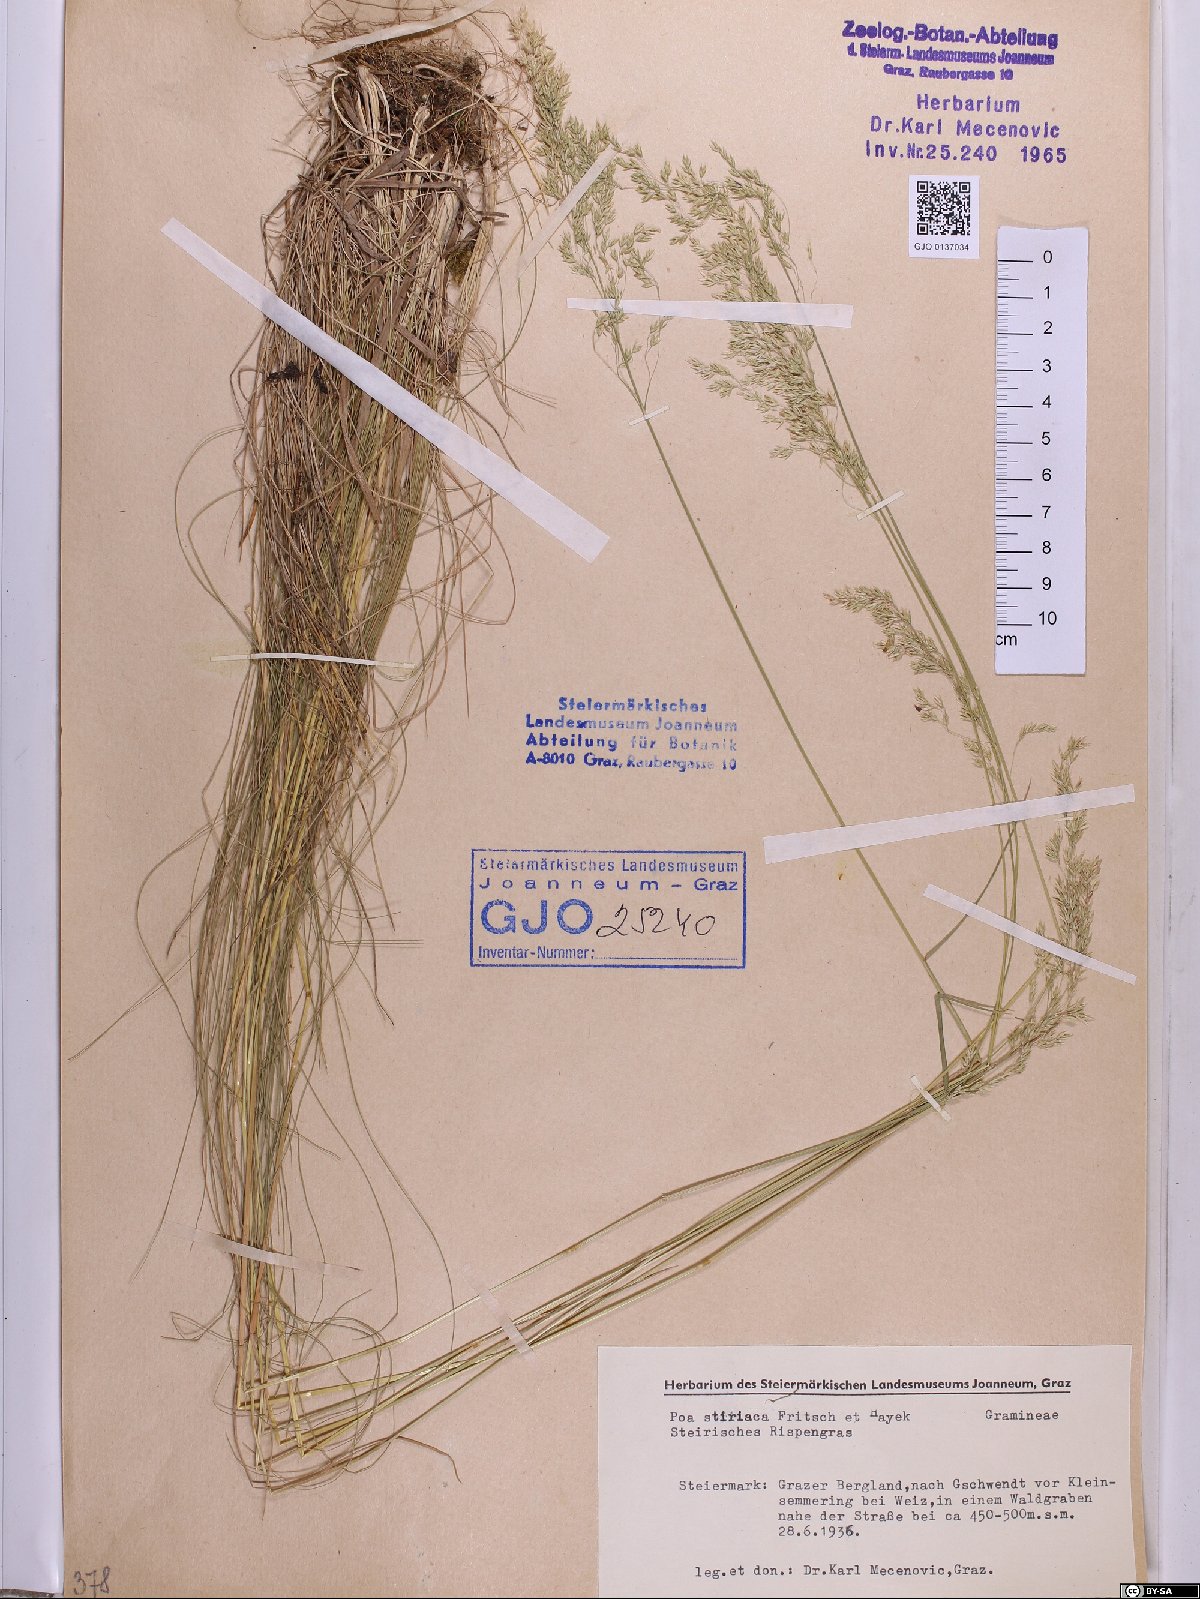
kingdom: Plantae
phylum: Tracheophyta
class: Liliopsida
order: Poales
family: Poaceae
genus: Poa
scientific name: Poa stiriaca
